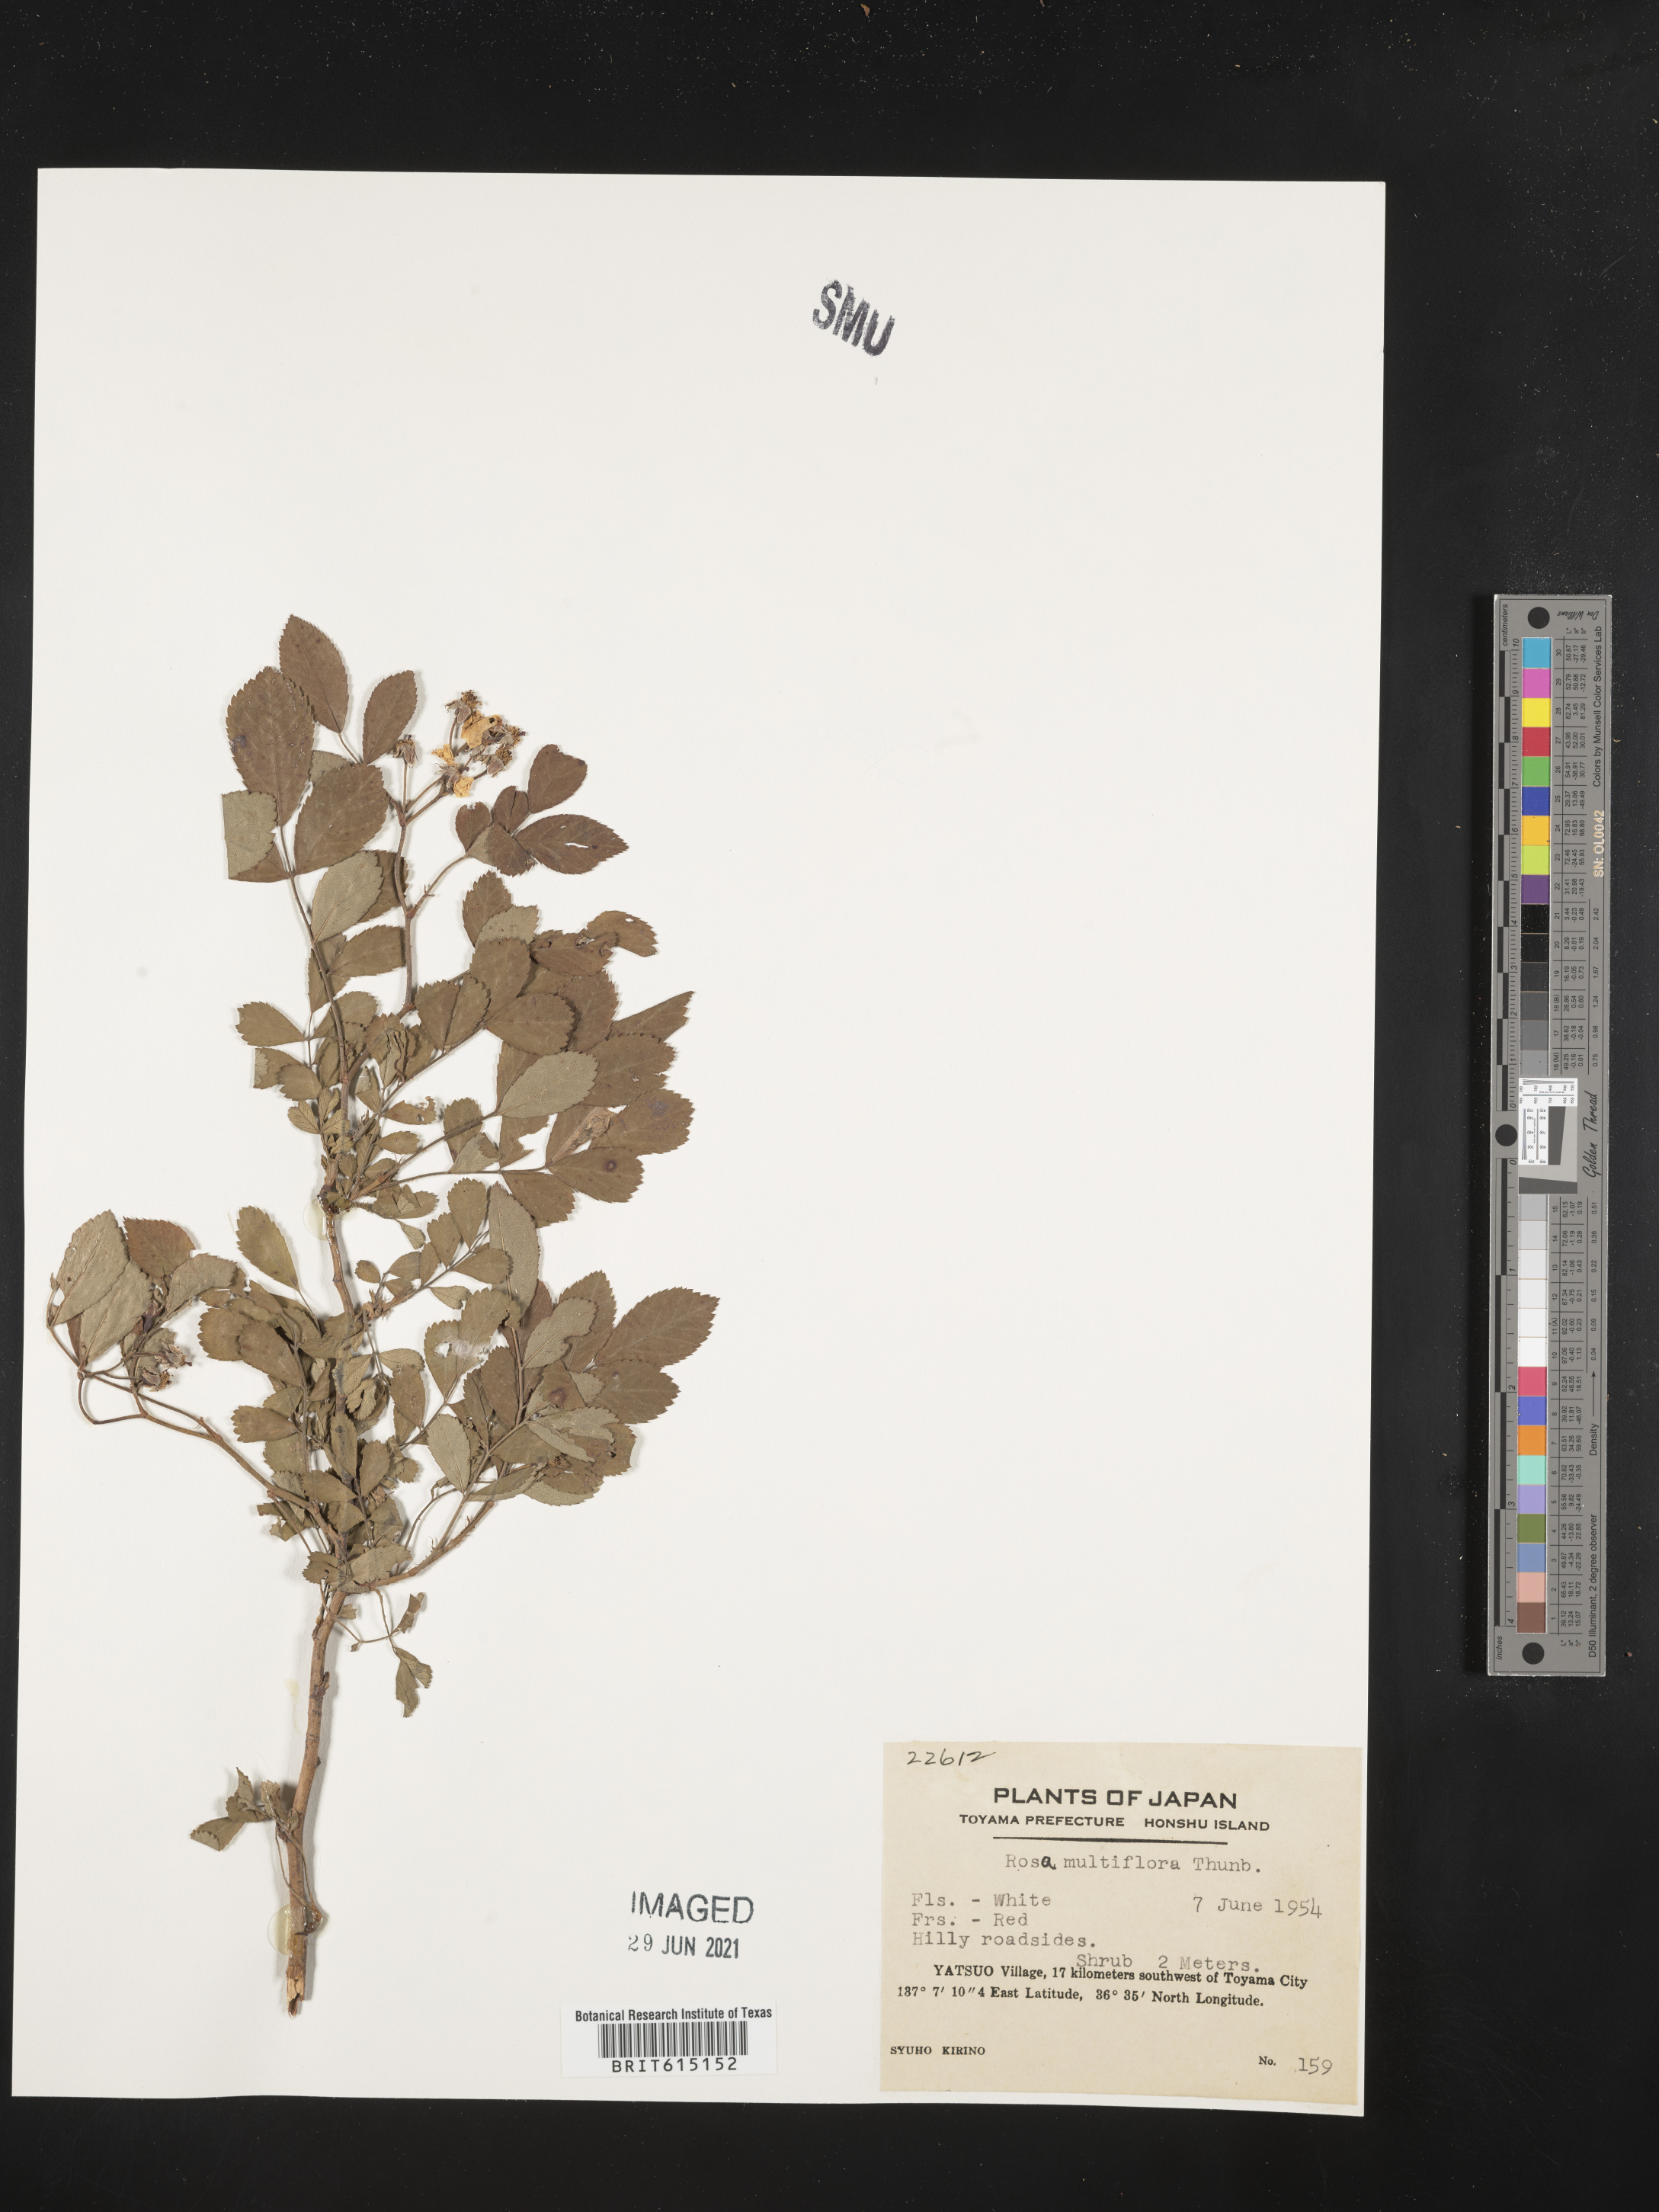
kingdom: Plantae
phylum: Tracheophyta
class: Magnoliopsida
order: Rosales
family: Rosaceae
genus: Rosa
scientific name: Rosa multiflora
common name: Multiflora rose
